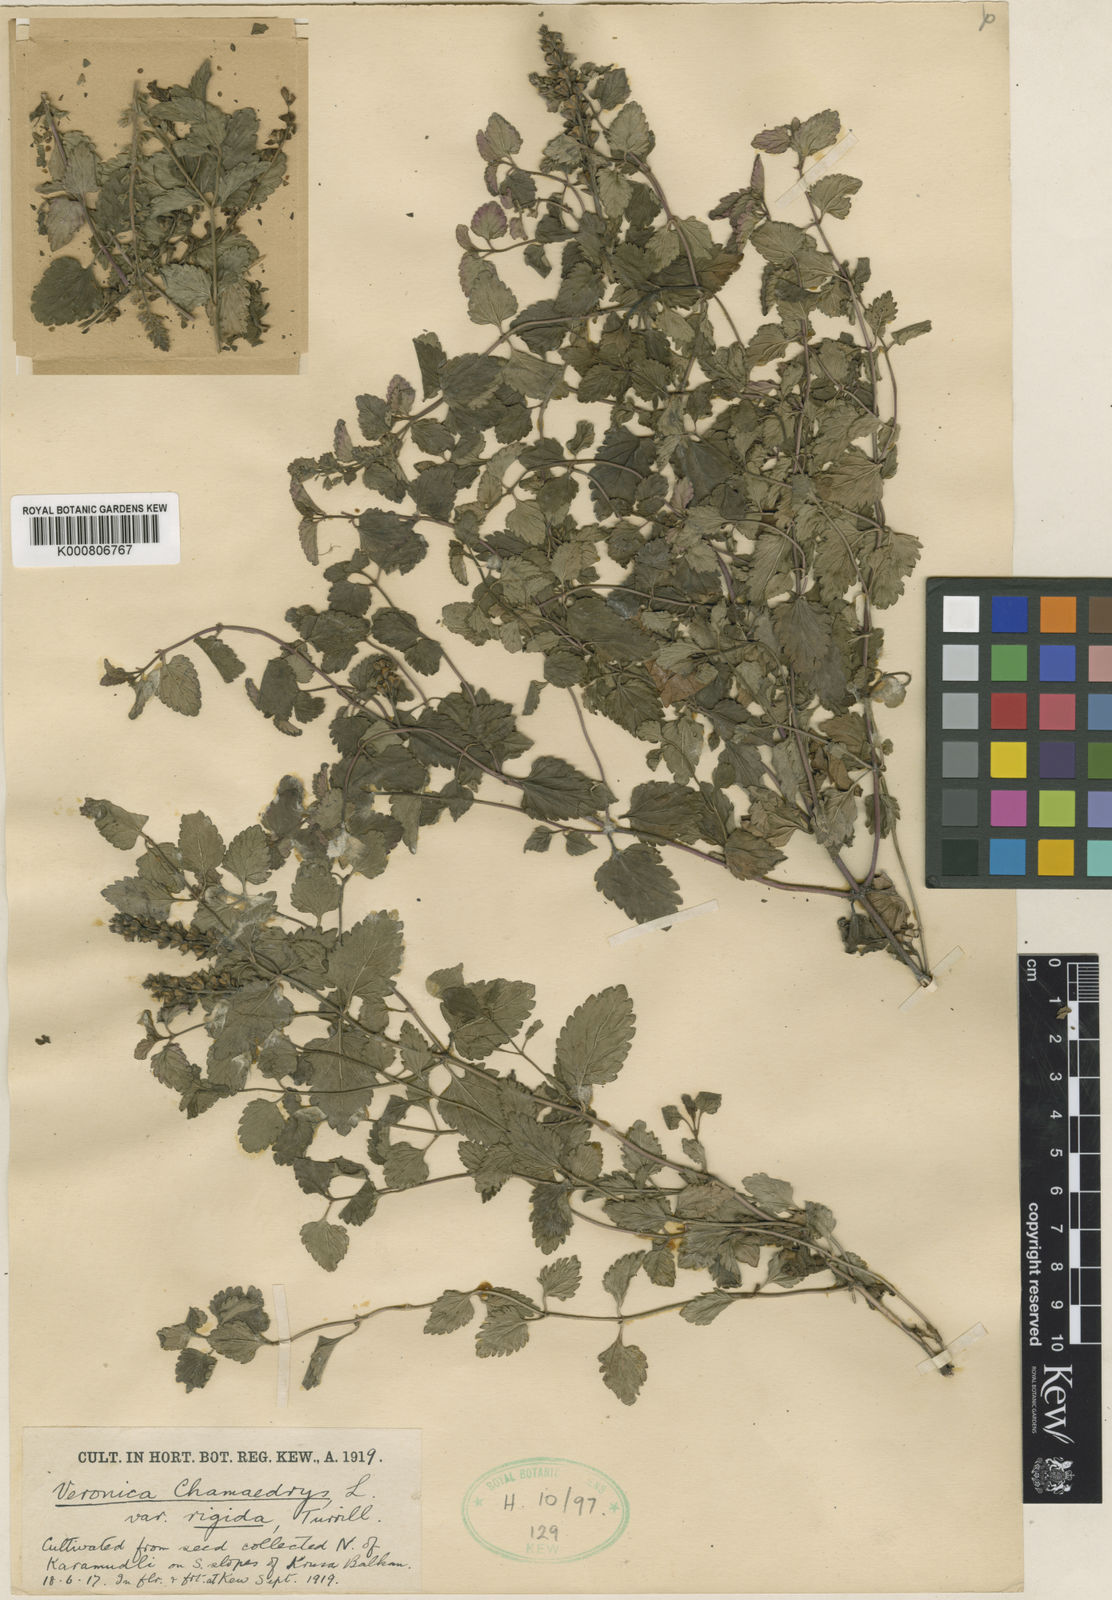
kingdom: Plantae
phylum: Tracheophyta
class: Magnoliopsida
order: Lamiales
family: Plantaginaceae
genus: Veronica
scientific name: Veronica chamaedrys
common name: Germander speedwell
